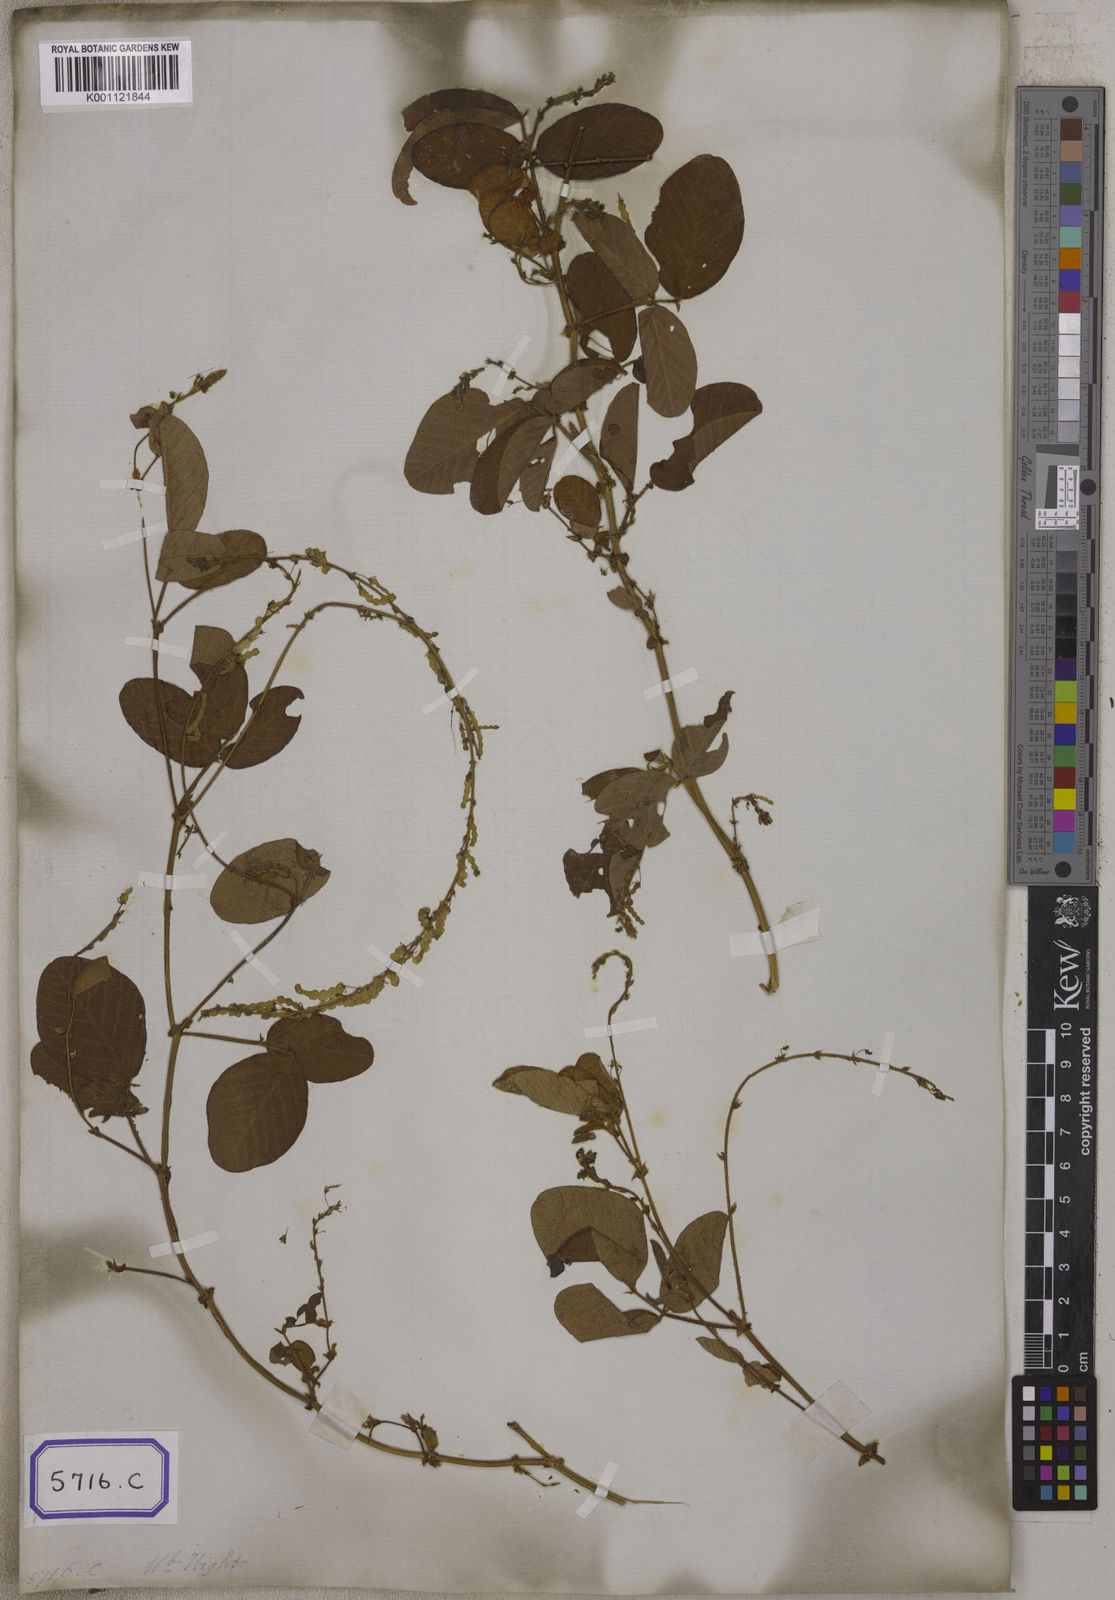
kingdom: Plantae
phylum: Tracheophyta
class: Magnoliopsida
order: Fabales
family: Fabaceae
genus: Polhillides
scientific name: Polhillides velutina
